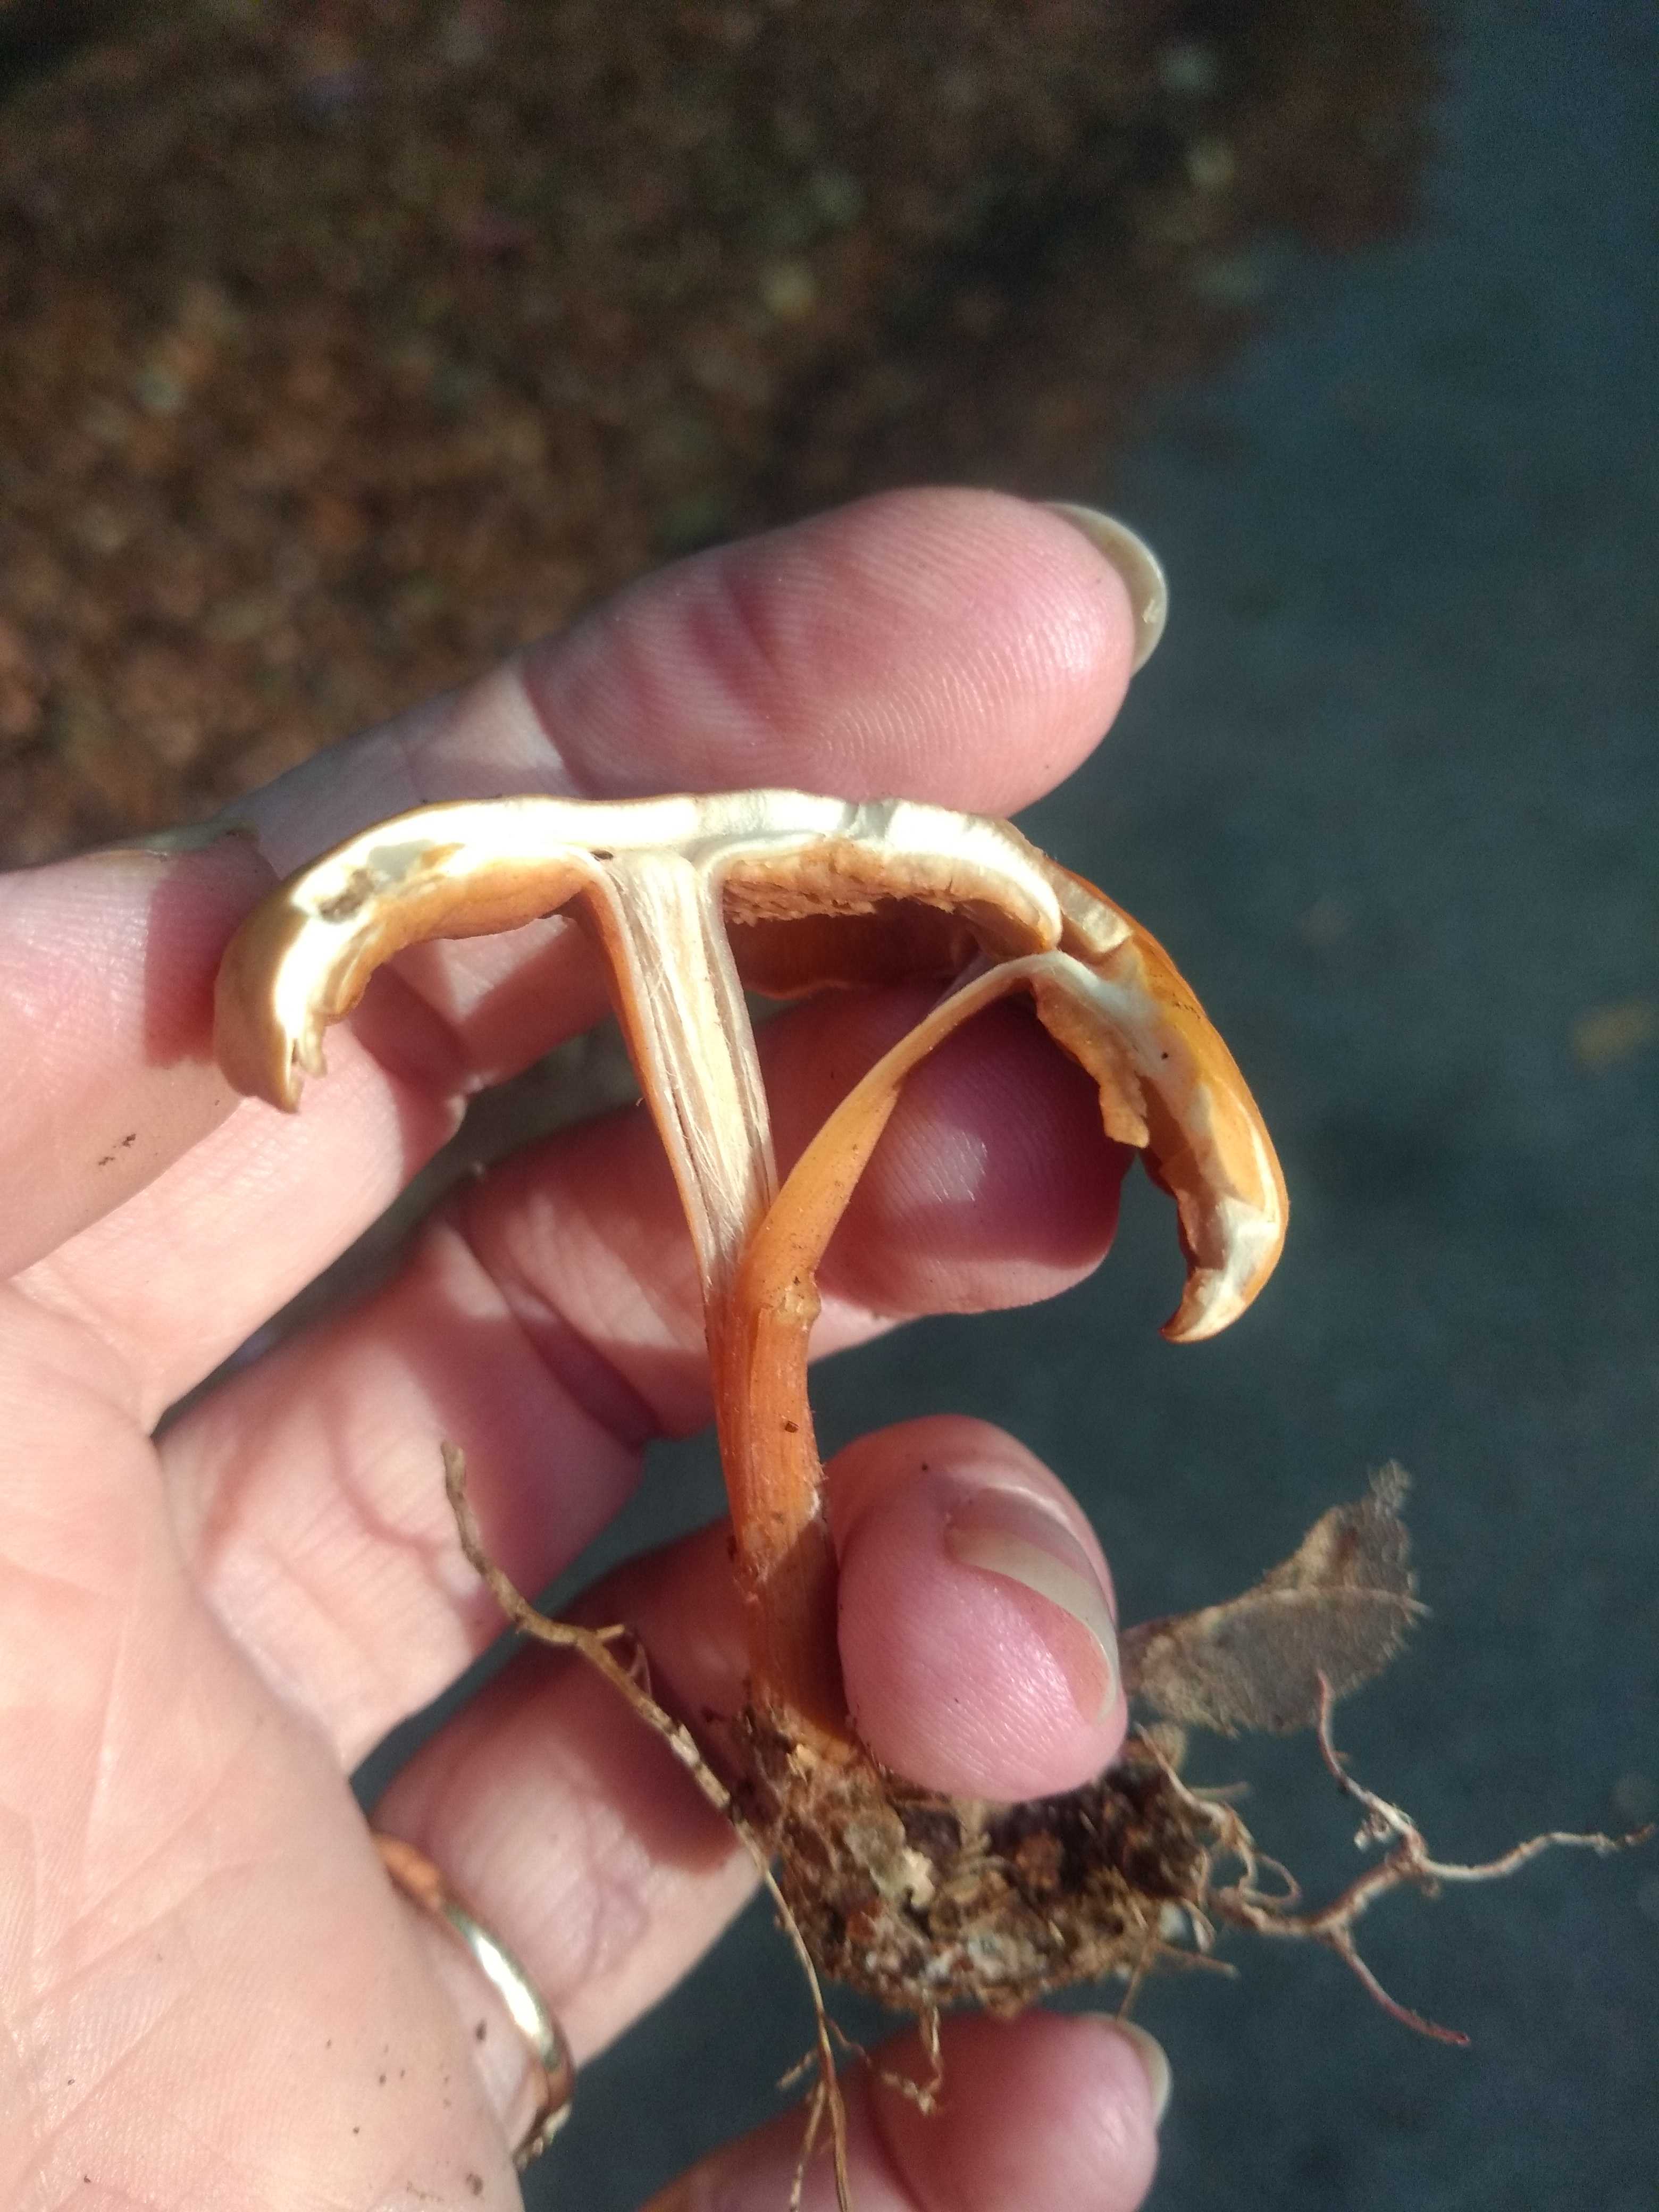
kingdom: Fungi
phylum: Basidiomycota
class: Agaricomycetes
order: Agaricales
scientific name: Agaricales
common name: champignonordenen
